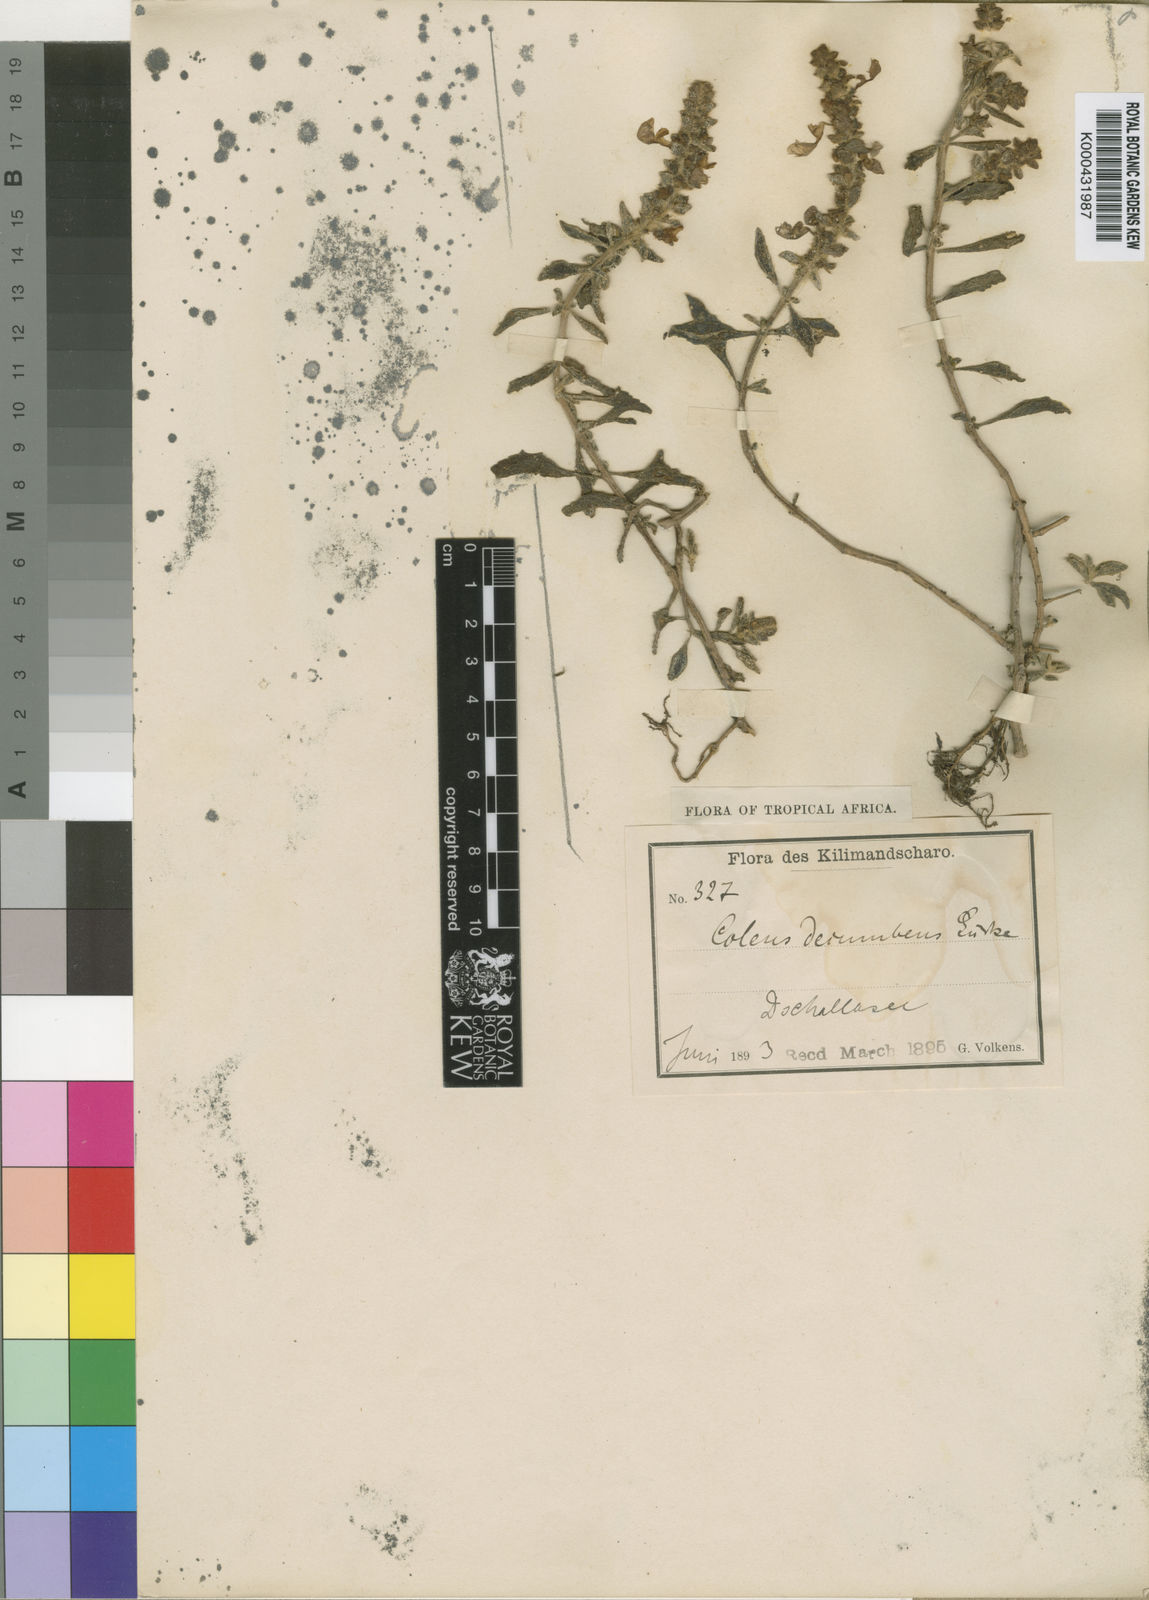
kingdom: Plantae
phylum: Tracheophyta
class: Magnoliopsida
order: Lamiales
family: Lamiaceae
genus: Plectranthus
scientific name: Plectranthus
